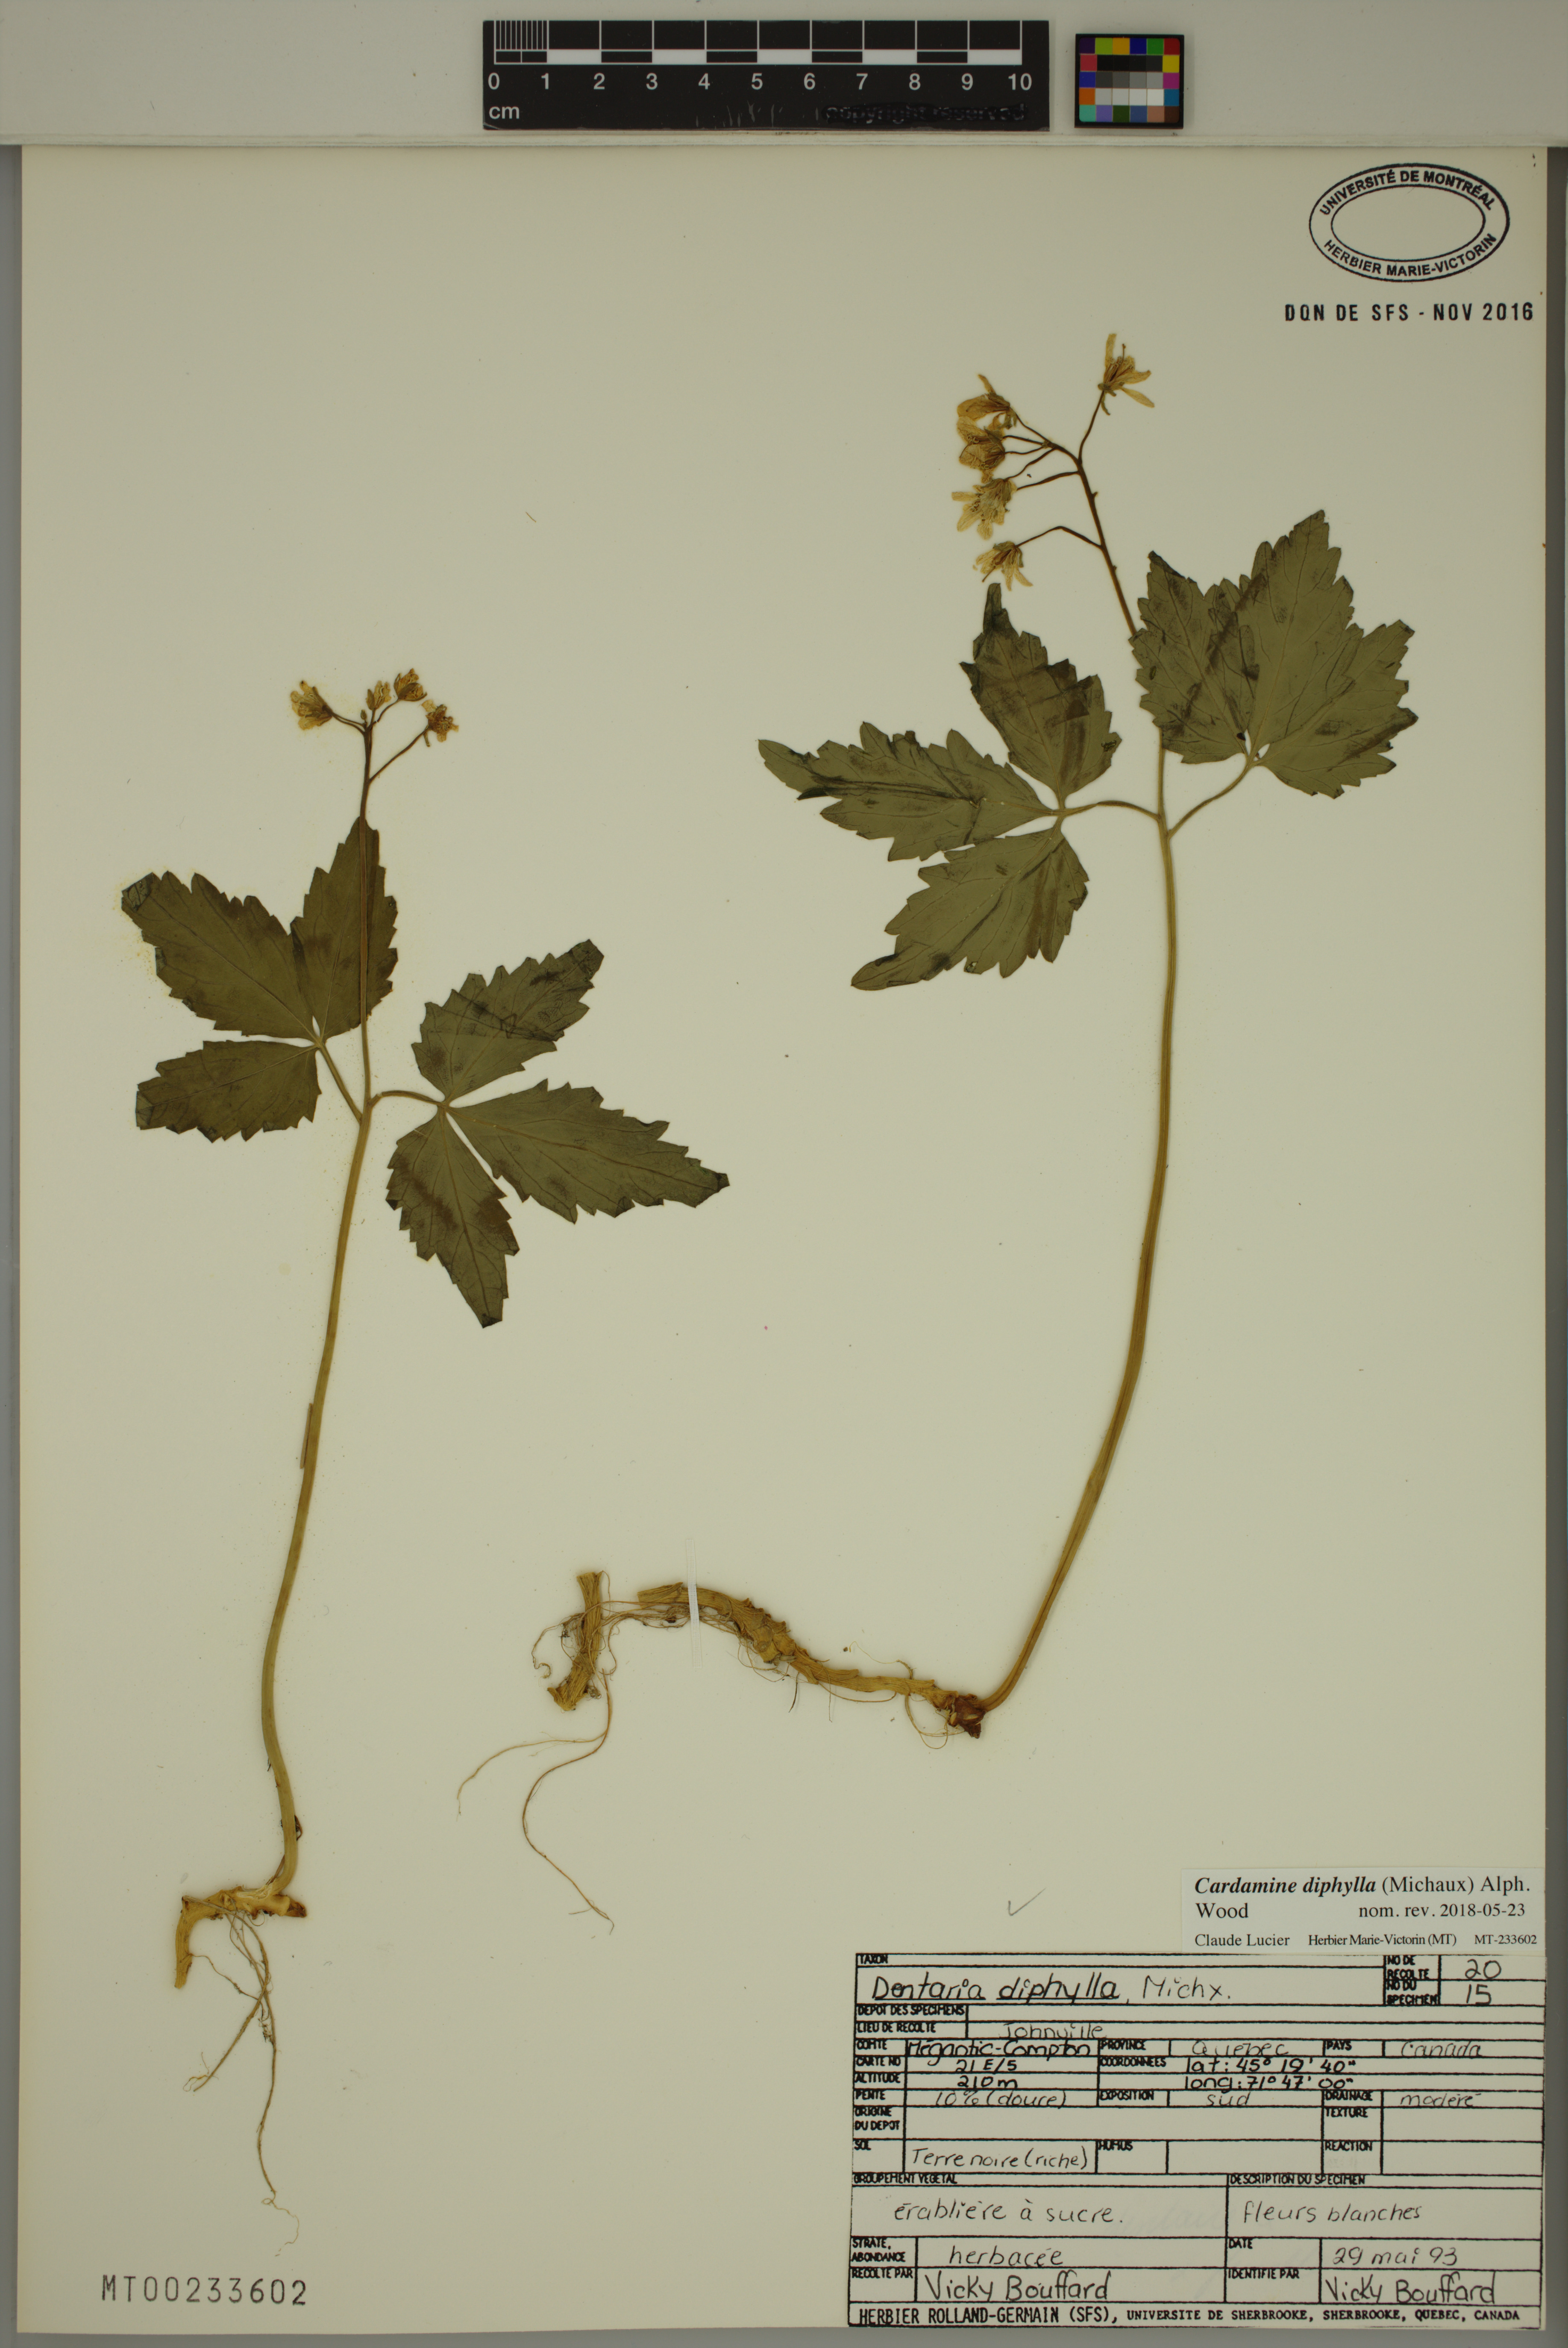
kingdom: Plantae
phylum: Tracheophyta
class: Magnoliopsida
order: Brassicales
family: Brassicaceae
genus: Cardamine
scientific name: Cardamine diphylla
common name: Broad-leaved toothwort
